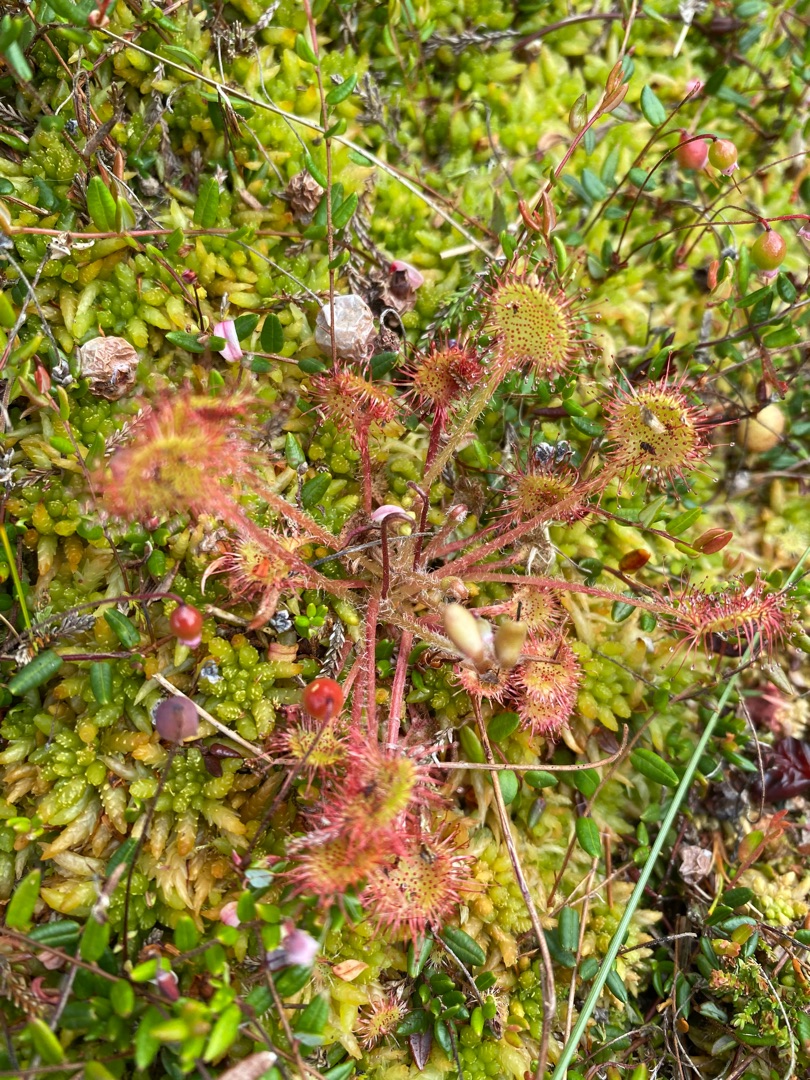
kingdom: Plantae
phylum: Tracheophyta
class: Magnoliopsida
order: Caryophyllales
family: Droseraceae
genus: Drosera
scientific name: Drosera rotundifolia
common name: Rundbladet soldug
